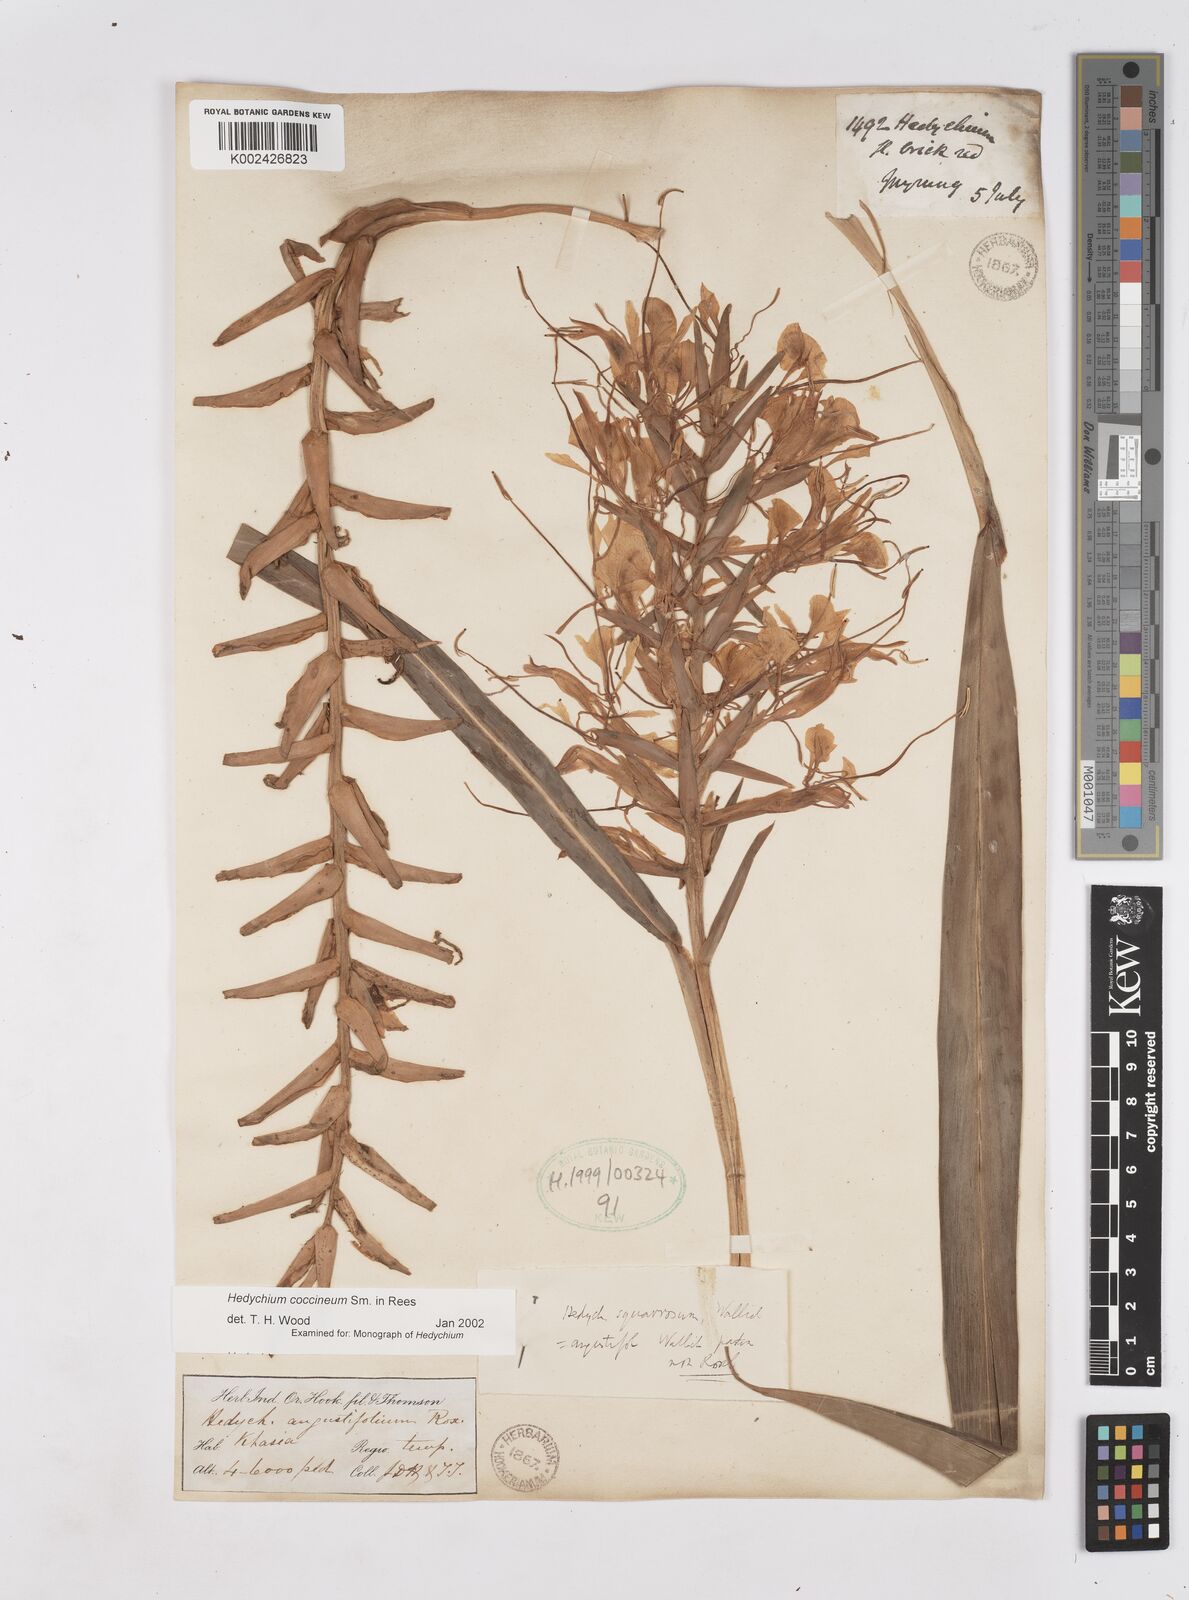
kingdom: Plantae
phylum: Tracheophyta
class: Liliopsida
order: Zingiberales
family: Zingiberaceae
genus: Hedychium
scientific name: Hedychium coccineum
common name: Red ginger-lily
